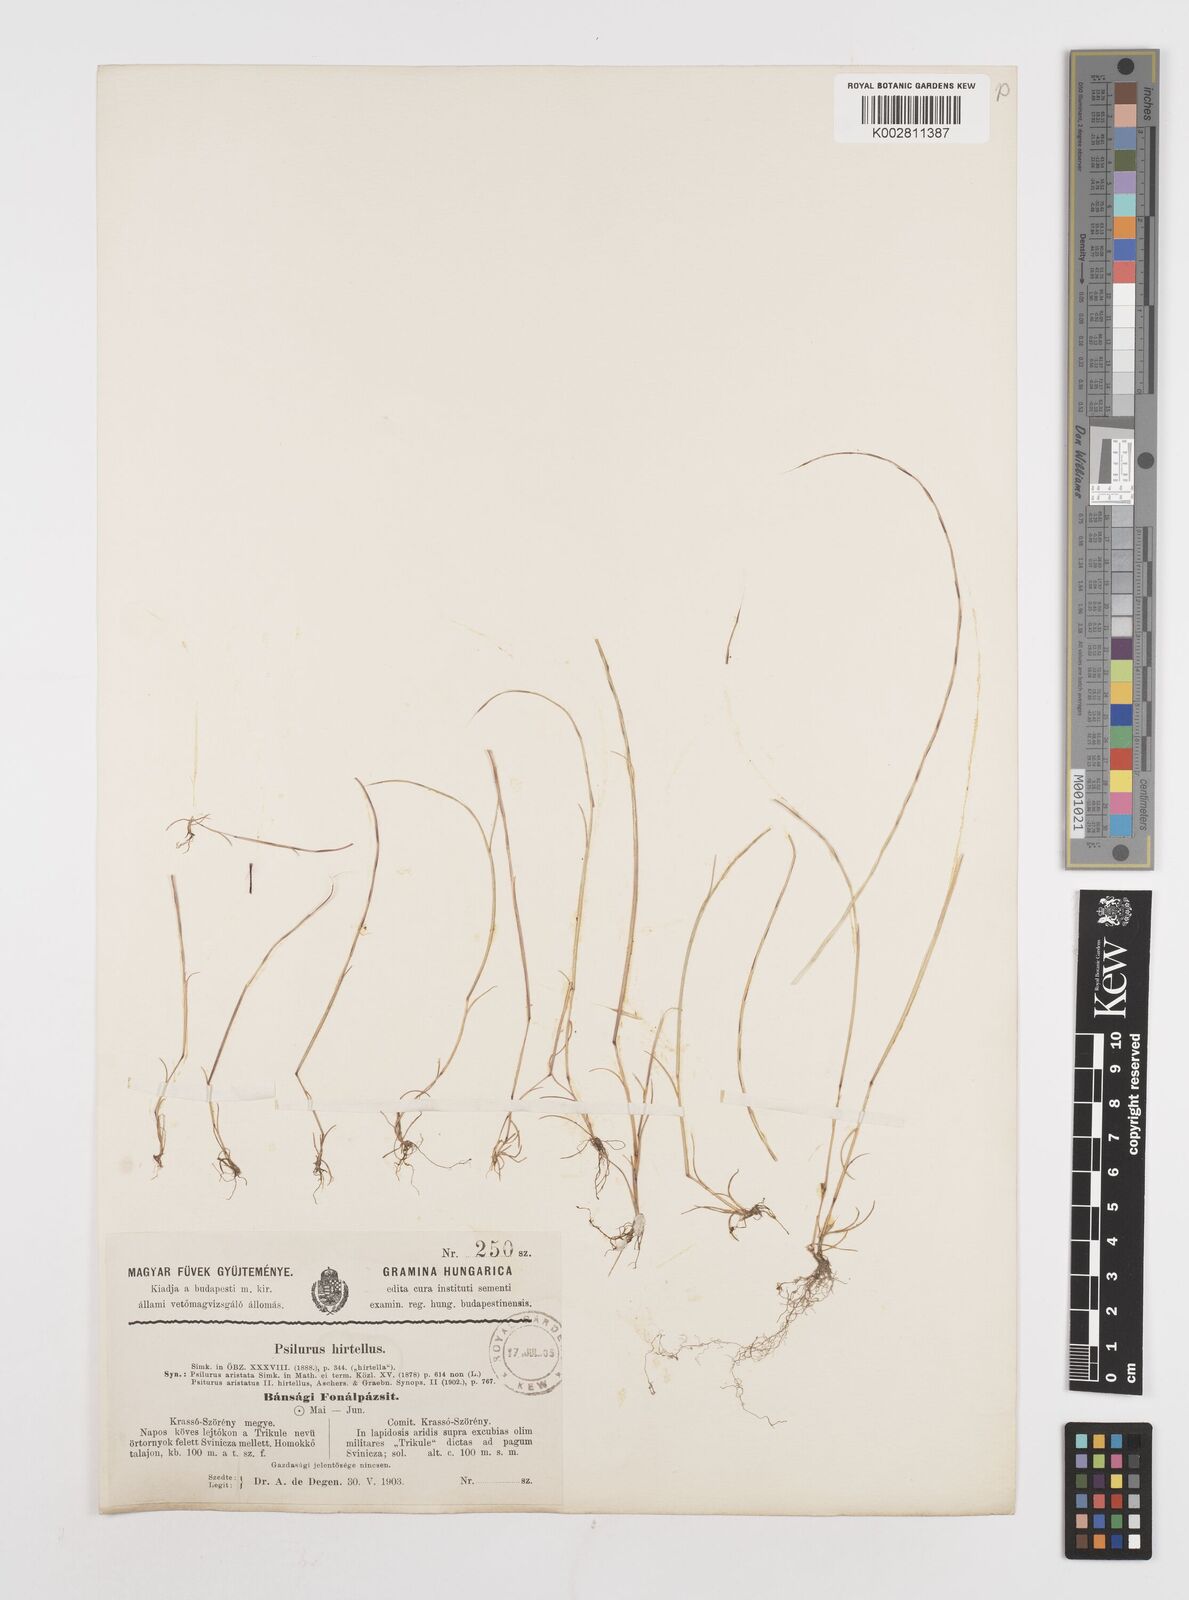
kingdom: Plantae
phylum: Tracheophyta
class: Liliopsida
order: Poales
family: Poaceae
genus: Festuca
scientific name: Festuca incurva
